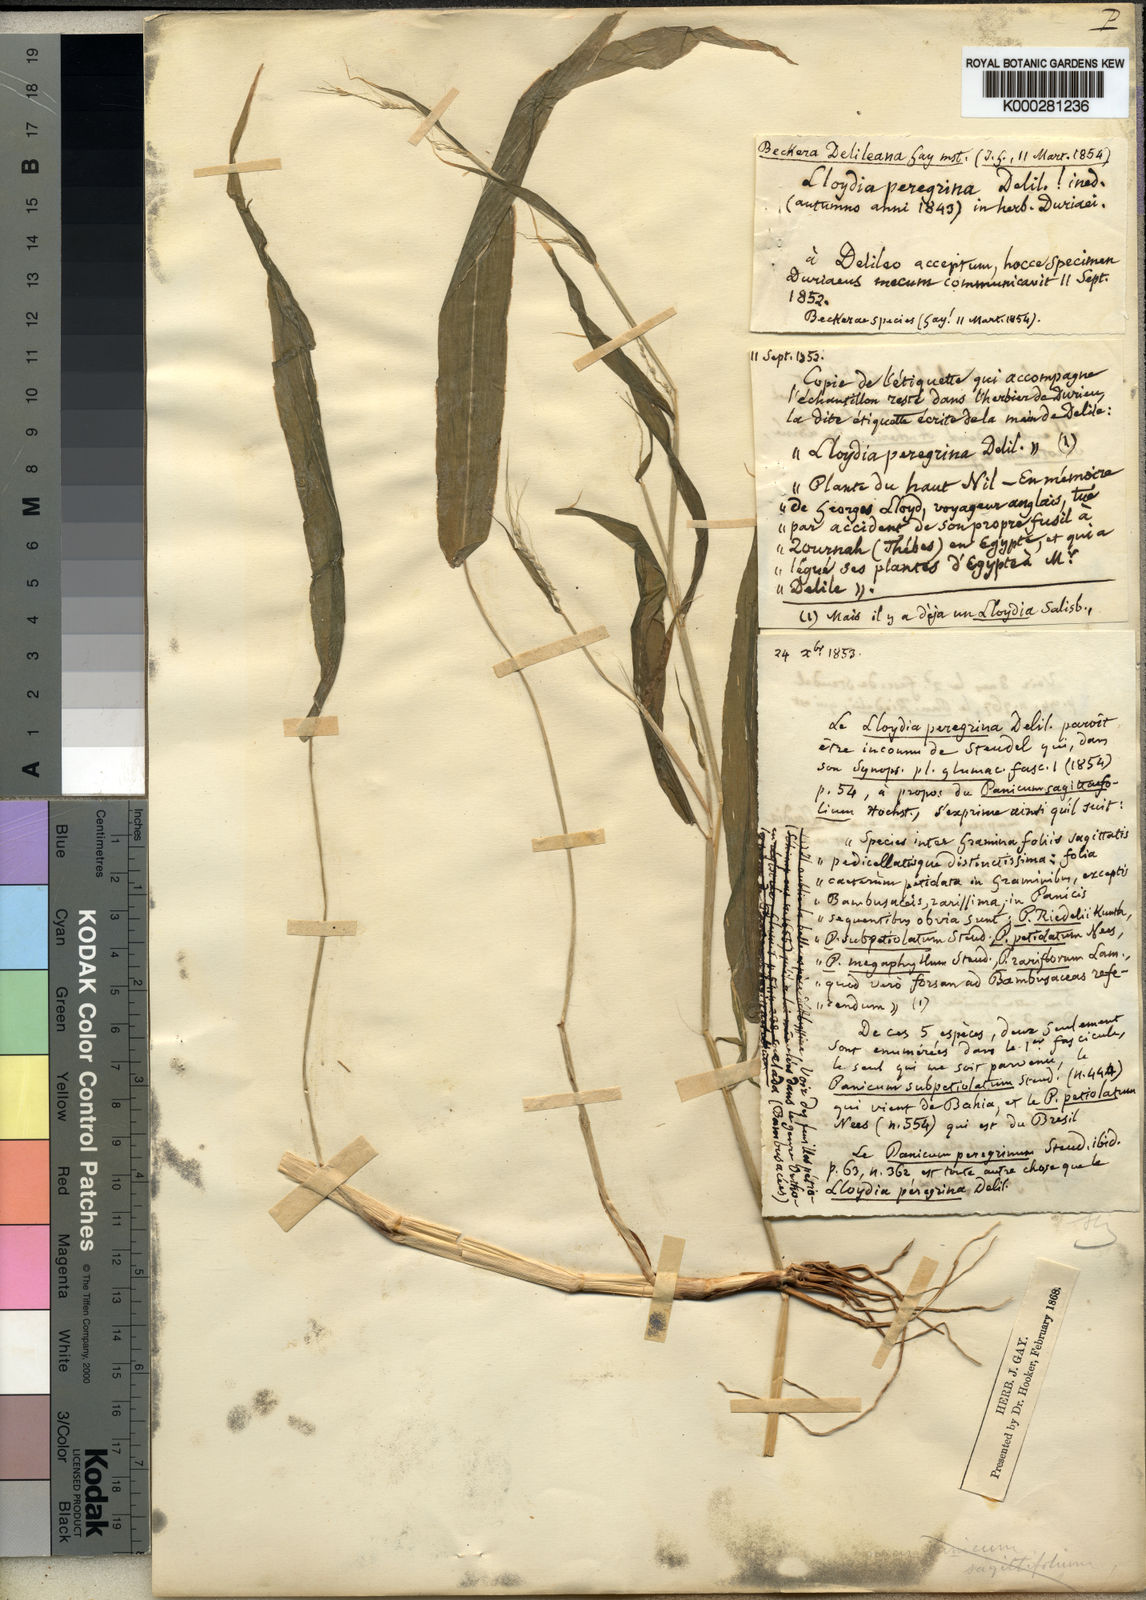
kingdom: Plantae
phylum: Tracheophyta
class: Liliopsida
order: Poales
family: Poaceae
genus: Cenchrus
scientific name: Cenchrus petiolaris
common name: Grass
